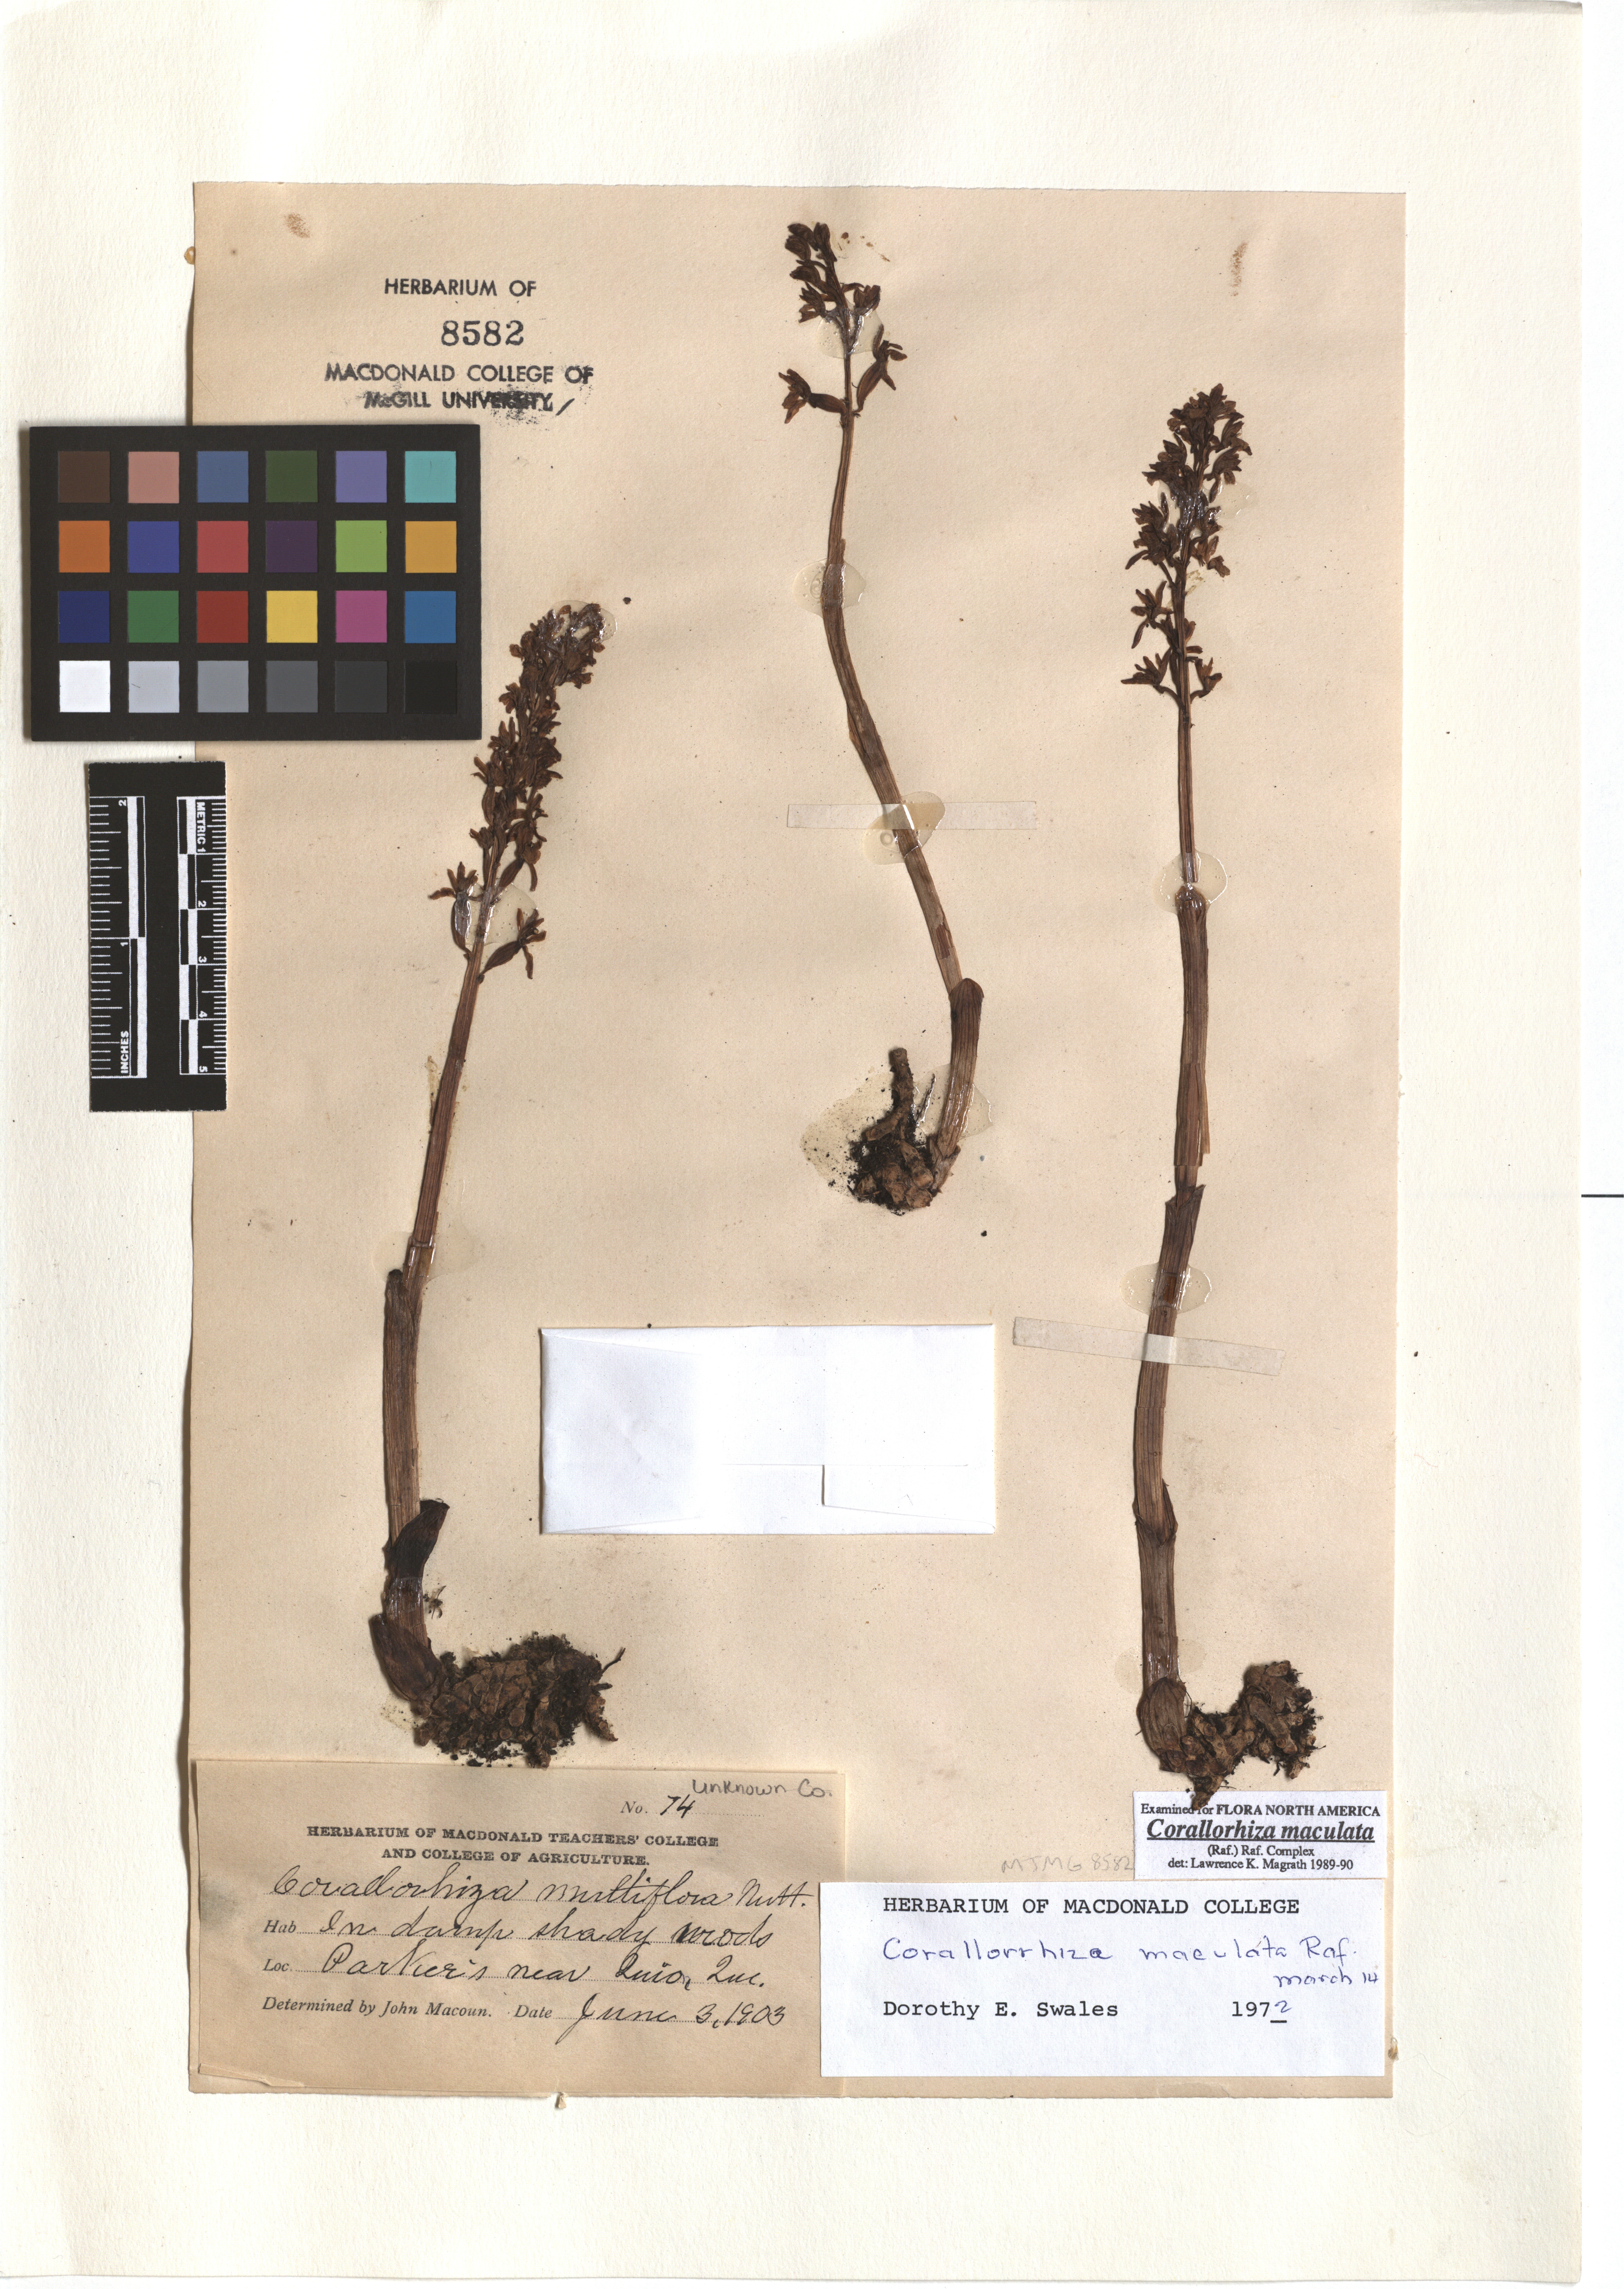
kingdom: Plantae
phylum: Tracheophyta
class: Liliopsida
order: Asparagales
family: Orchidaceae
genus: Corallorhiza
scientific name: Corallorhiza maculata
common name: Spotted coralroot
